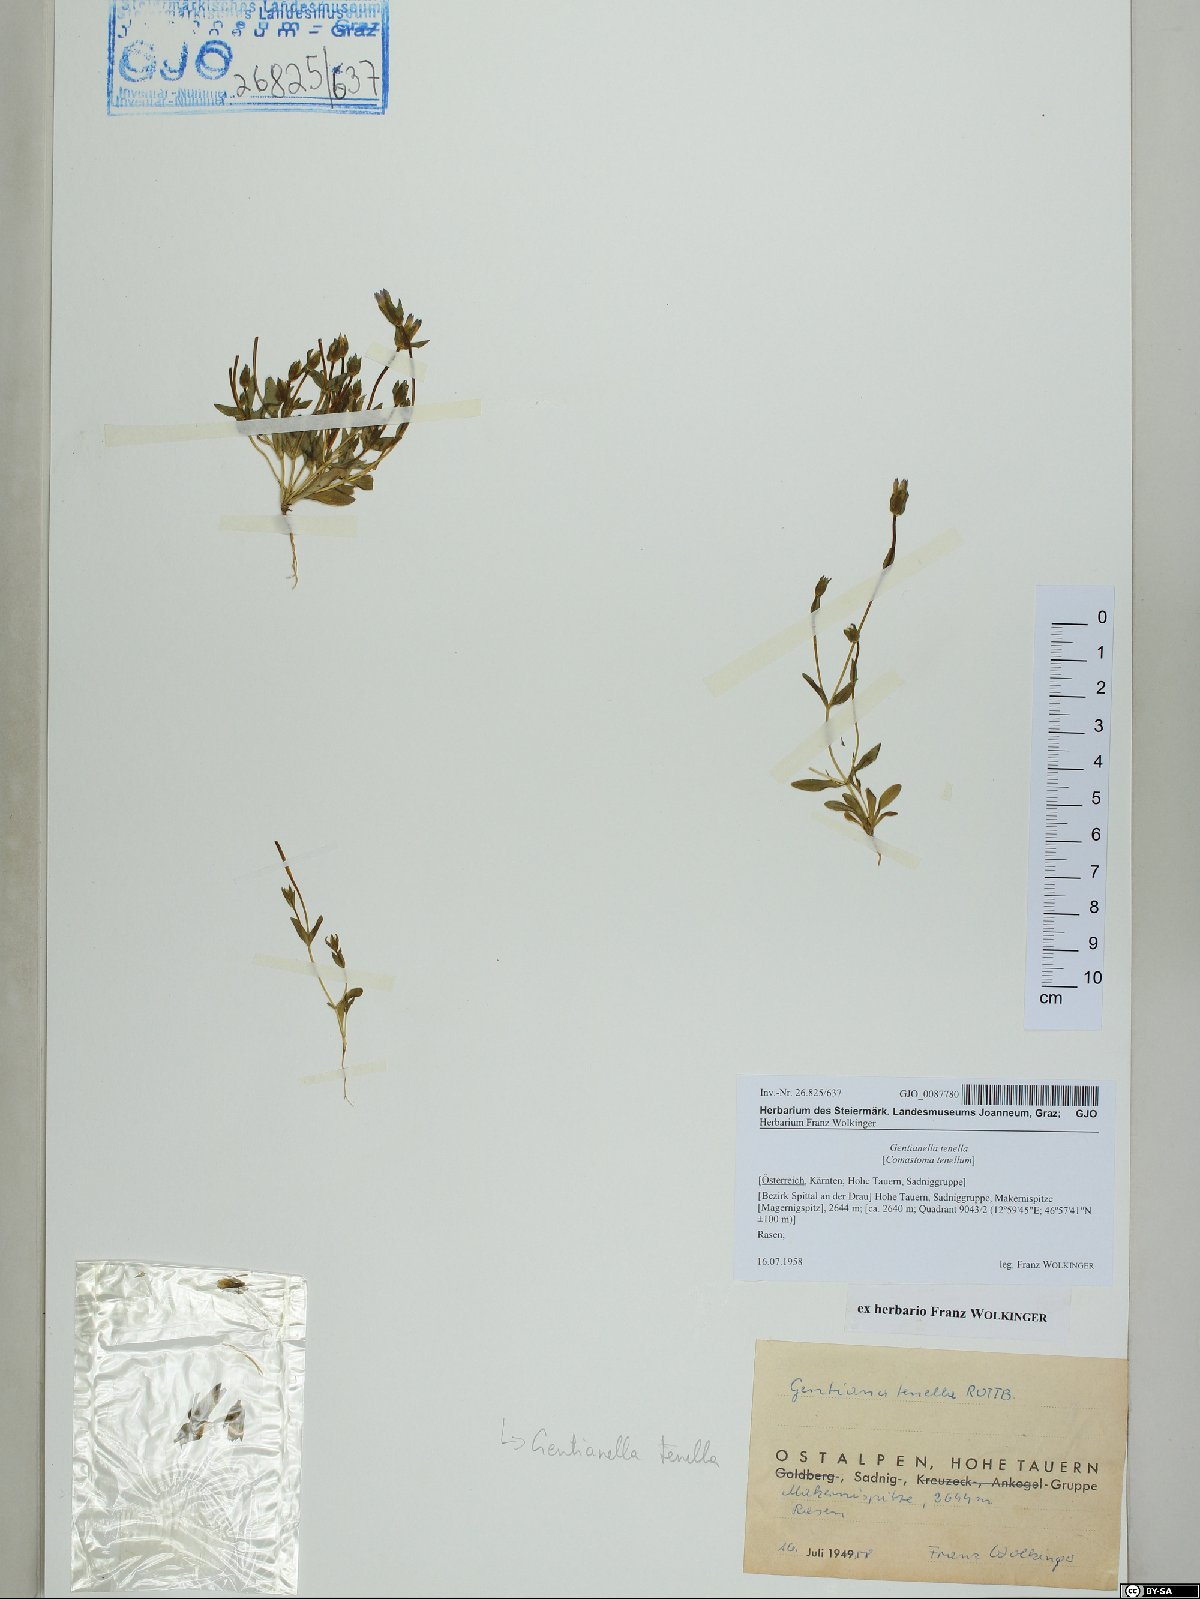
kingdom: Plantae
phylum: Tracheophyta
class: Magnoliopsida
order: Gentianales
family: Gentianaceae
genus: Comastoma
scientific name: Comastoma tenellum
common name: Dane's dwarf gentian
